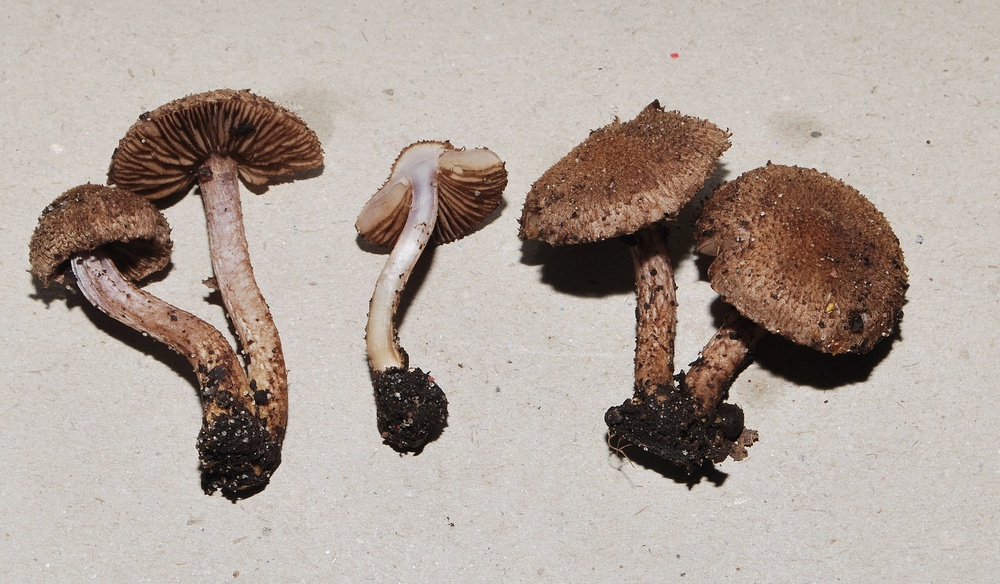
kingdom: Fungi
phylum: Basidiomycota
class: Agaricomycetes
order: Agaricales
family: Inocybaceae
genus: Inocybe
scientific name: Inocybe cincinnata
